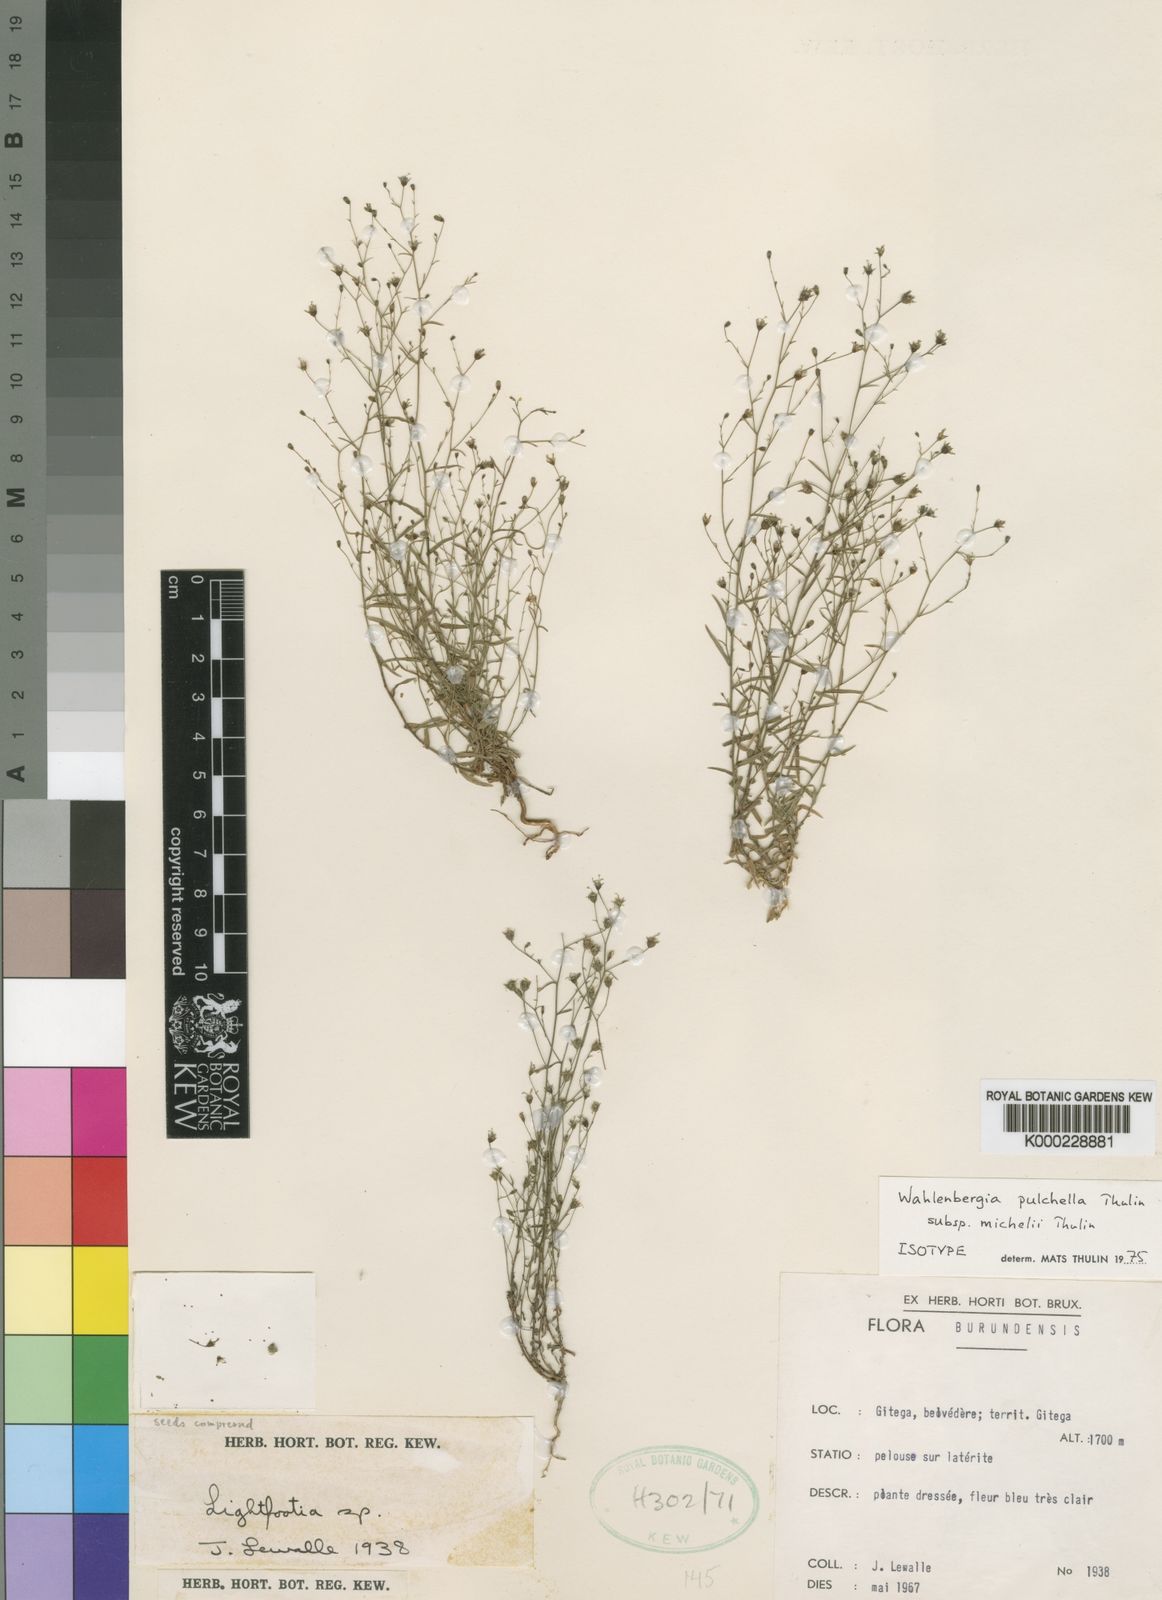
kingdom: Plantae
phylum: Tracheophyta
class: Magnoliopsida
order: Asterales
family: Campanulaceae
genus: Wahlenbergia
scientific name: Wahlenbergia pulchella
